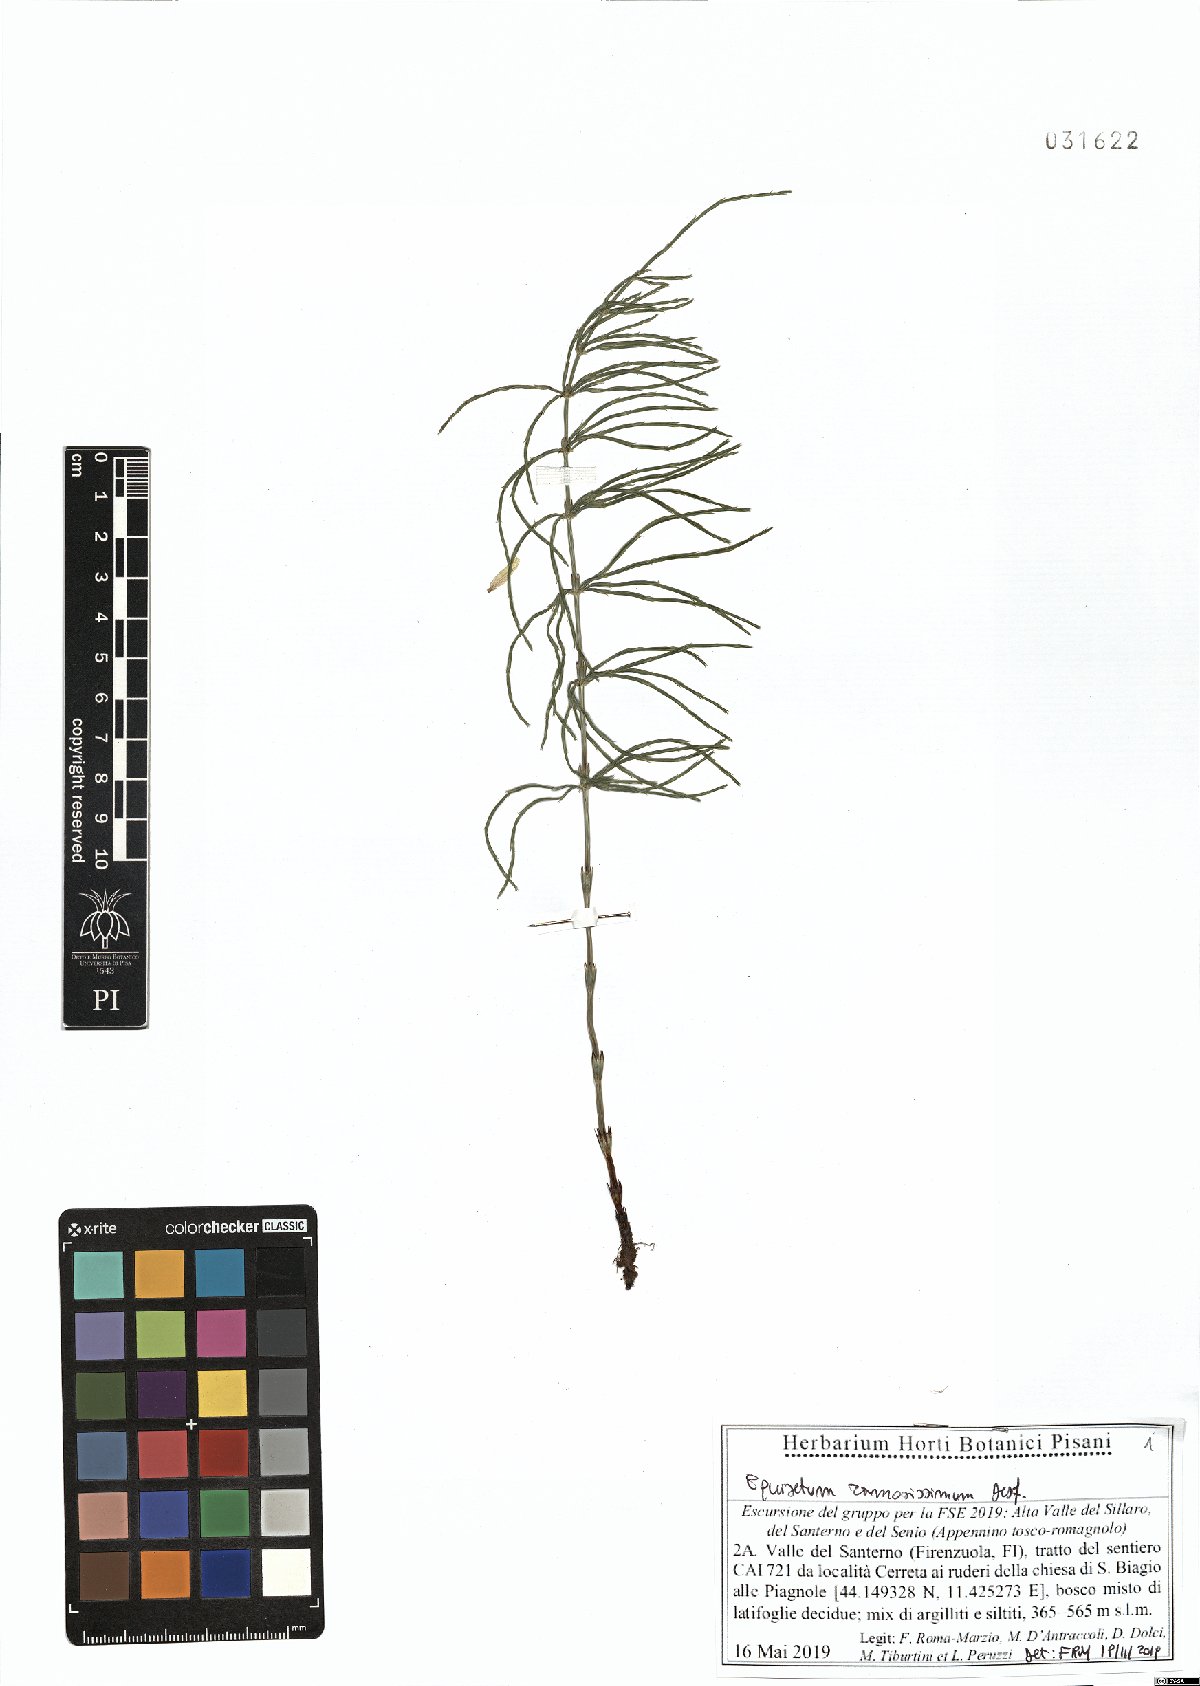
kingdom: Plantae
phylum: Tracheophyta
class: Polypodiopsida
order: Equisetales
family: Equisetaceae
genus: Equisetum
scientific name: Equisetum ramosissimum
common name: Branched horsetail
